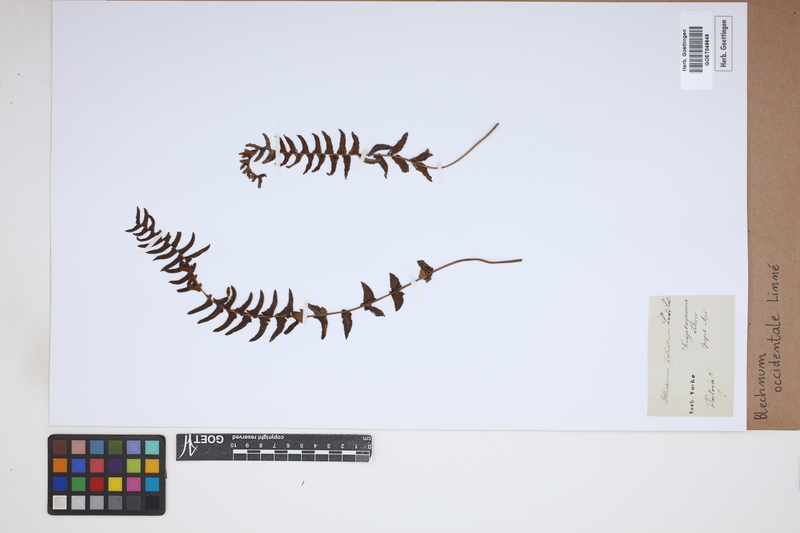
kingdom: Plantae
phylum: Tracheophyta
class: Polypodiopsida
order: Polypodiales
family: Blechnaceae
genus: Blechnum
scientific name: Blechnum occidentale
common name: Hammock fern
